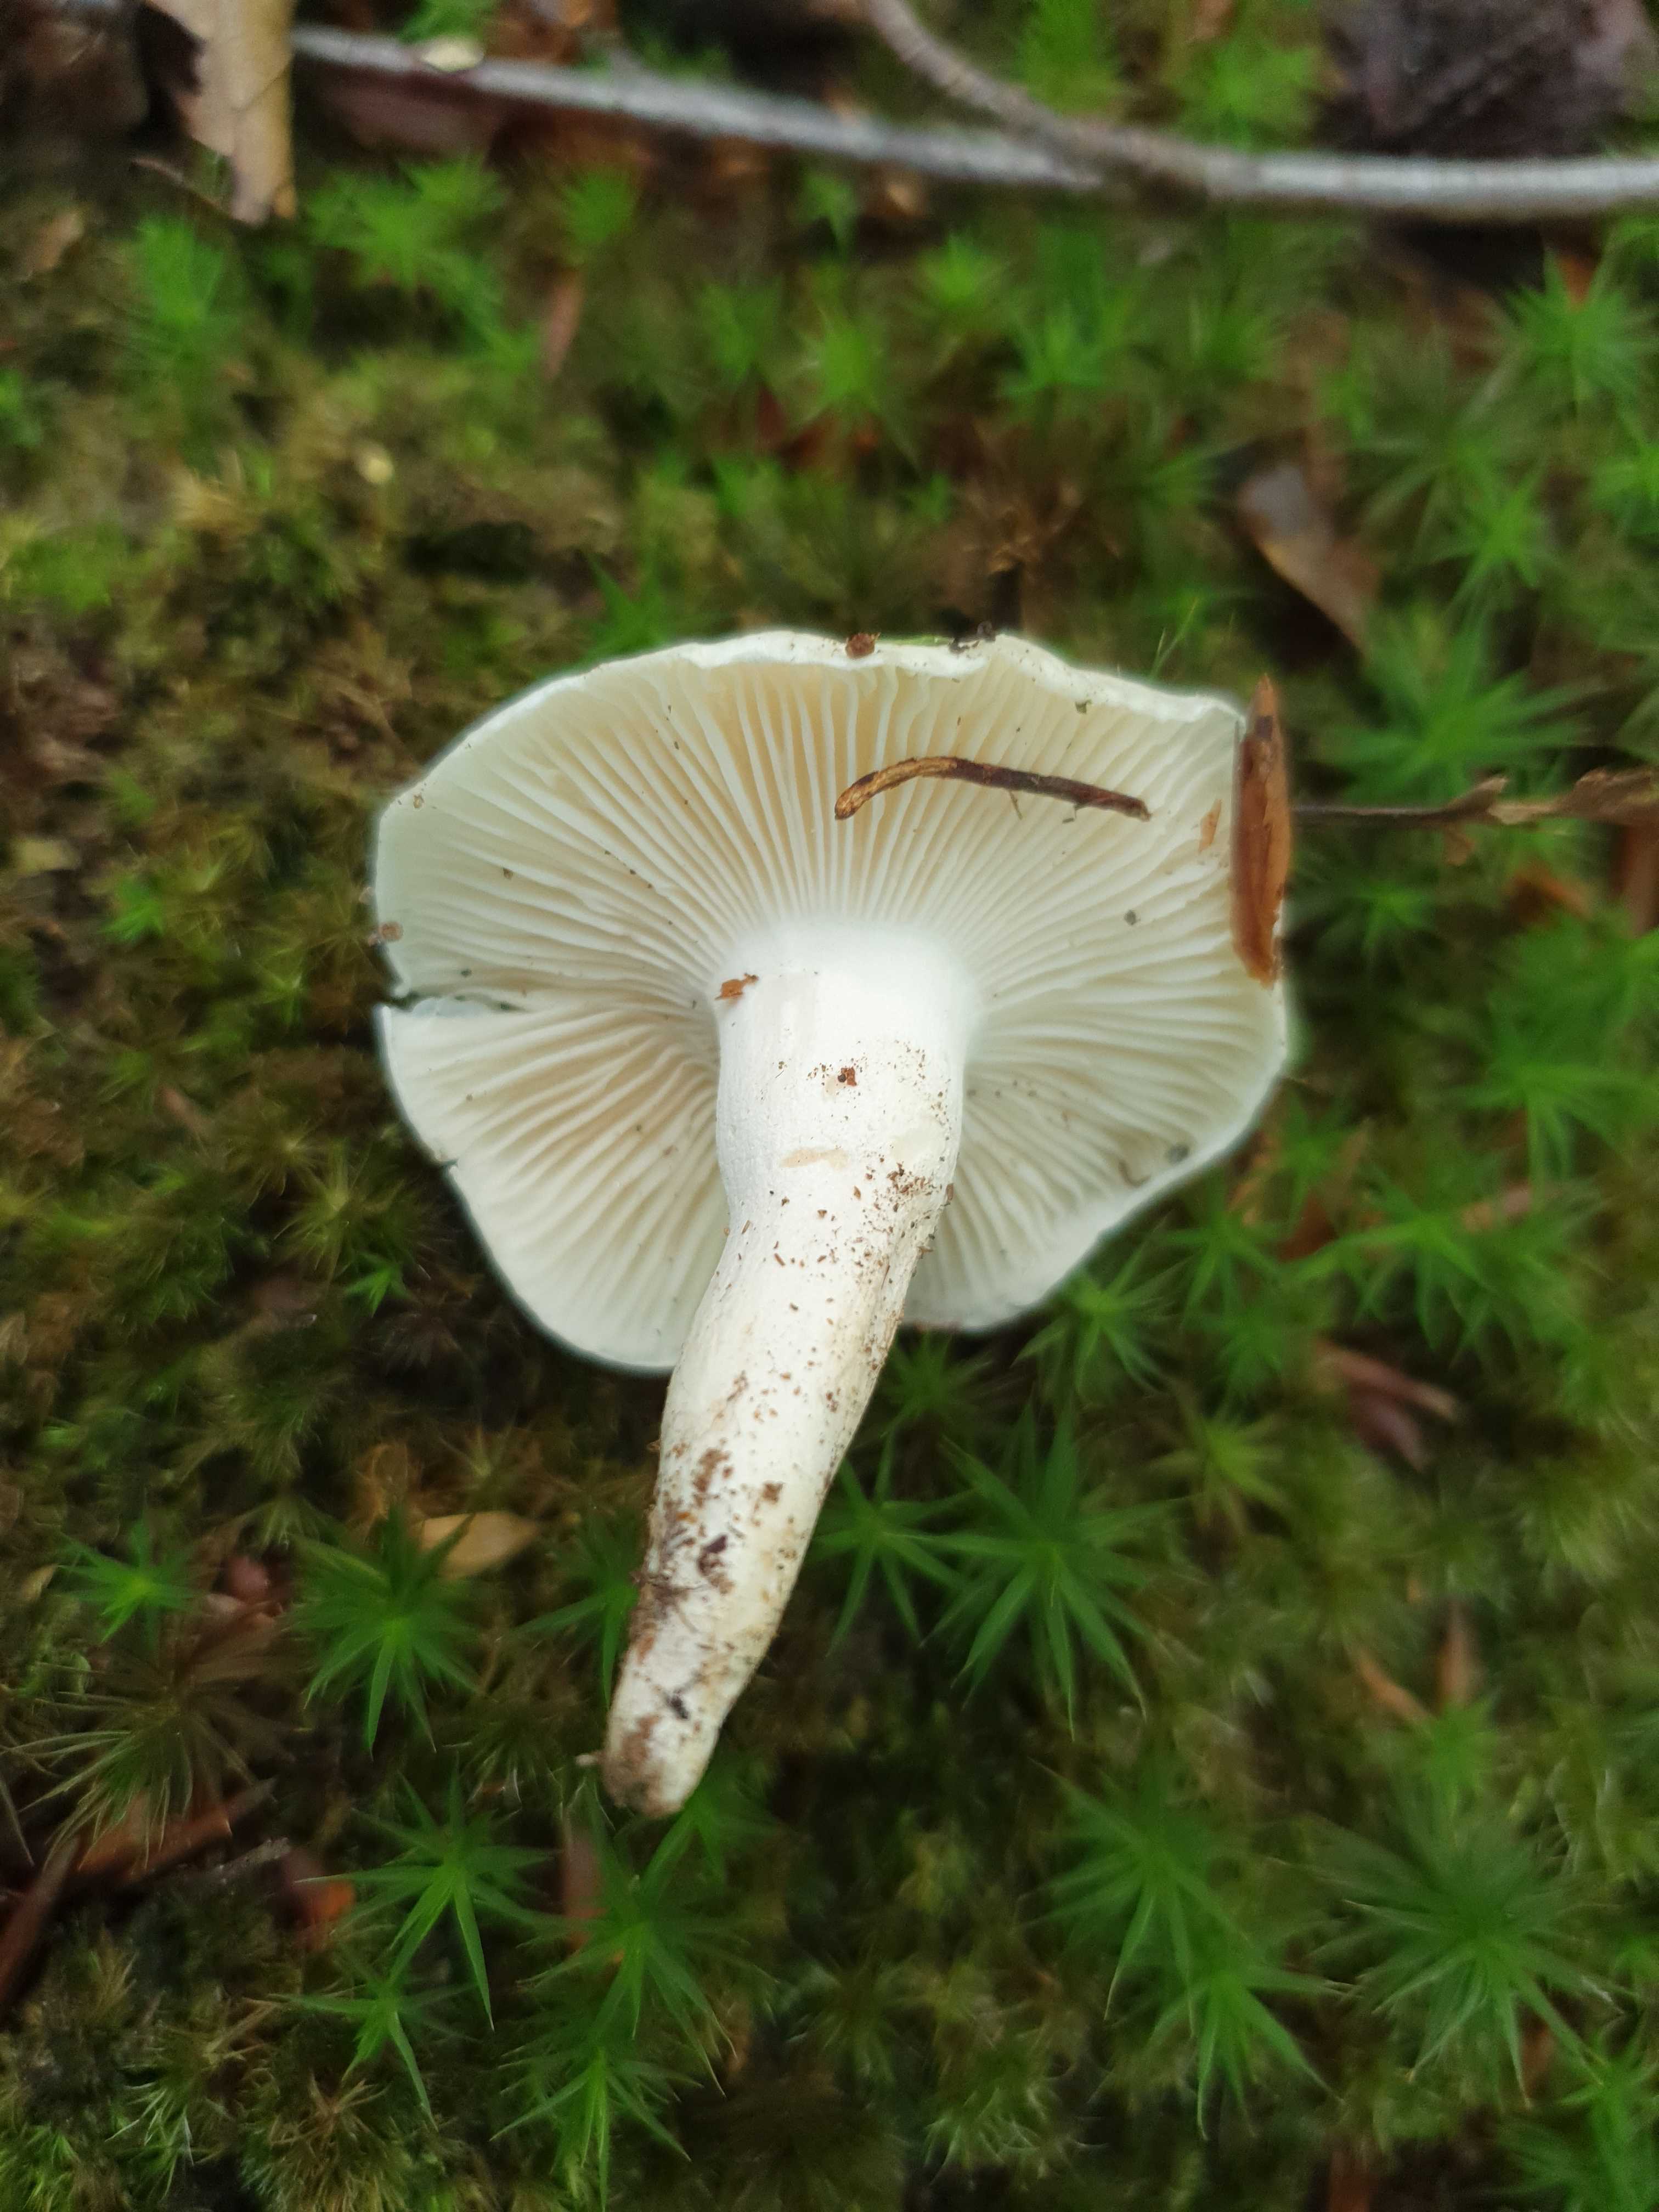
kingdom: Fungi
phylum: Basidiomycota
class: Agaricomycetes
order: Agaricales
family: Hygrophoraceae
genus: Hygrophorus
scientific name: Hygrophorus penarius
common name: spiselig sneglehat
